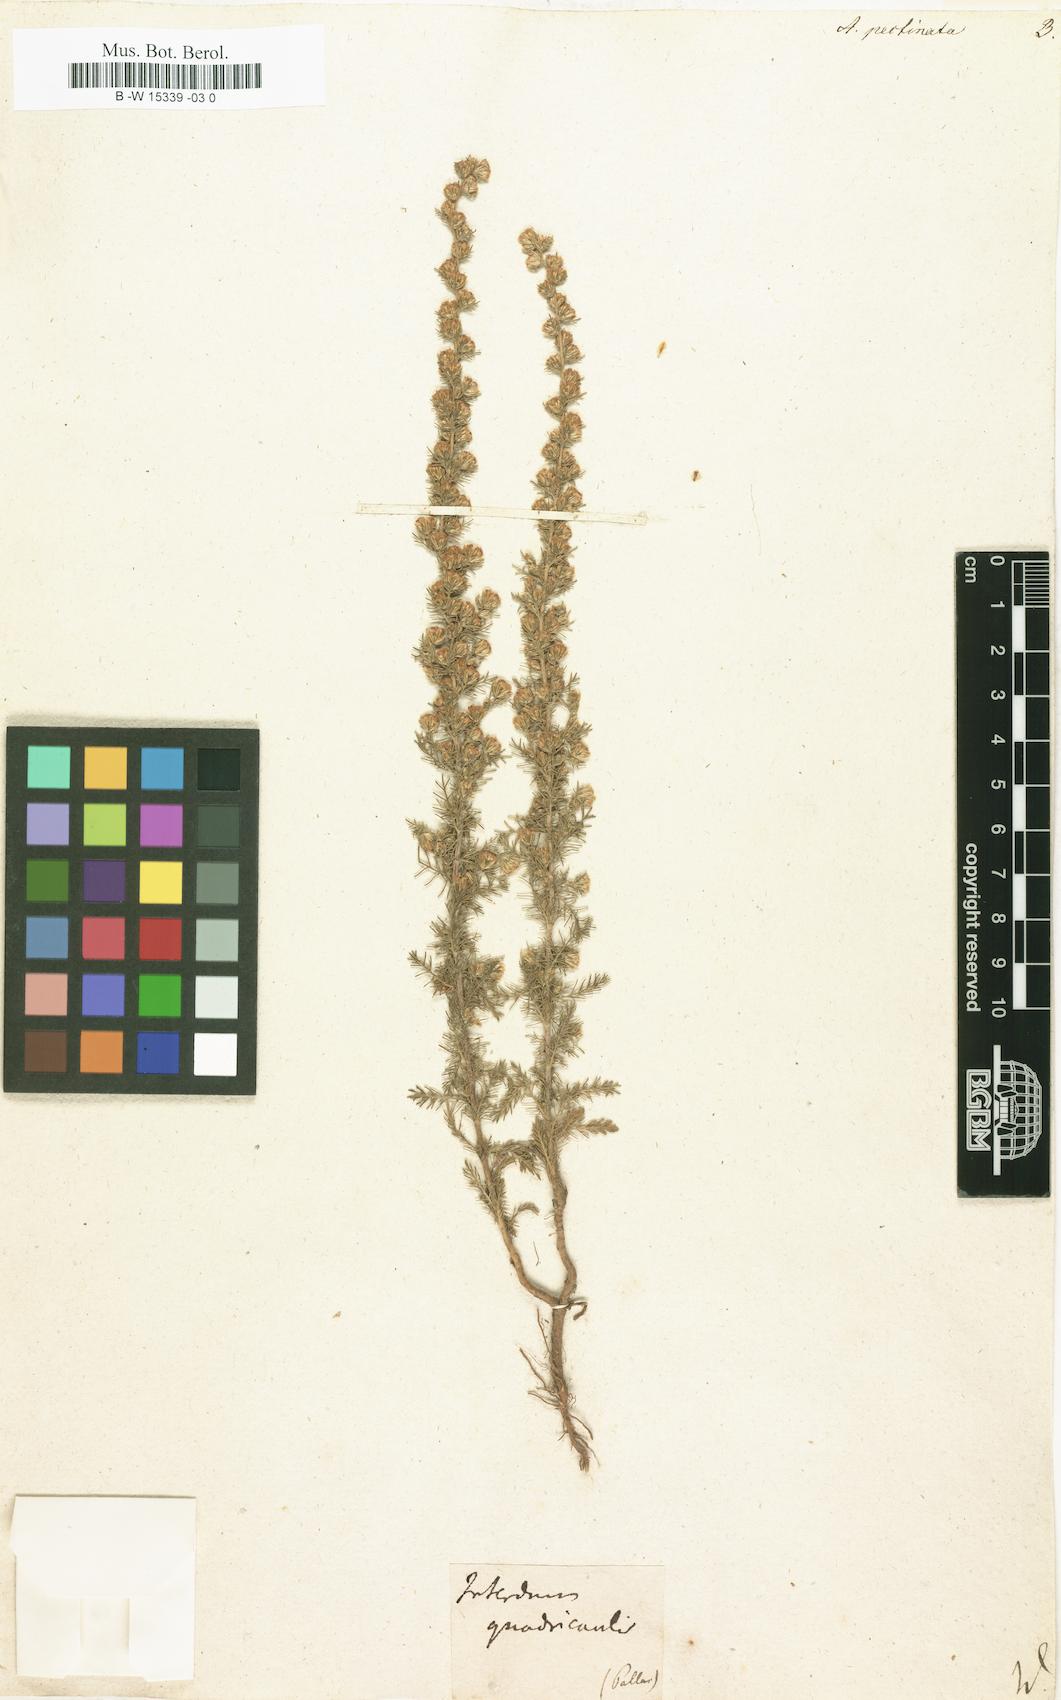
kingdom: Plantae
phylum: Tracheophyta
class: Magnoliopsida
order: Asterales
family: Asteraceae
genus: Neopallasia
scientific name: Neopallasia pectinata
